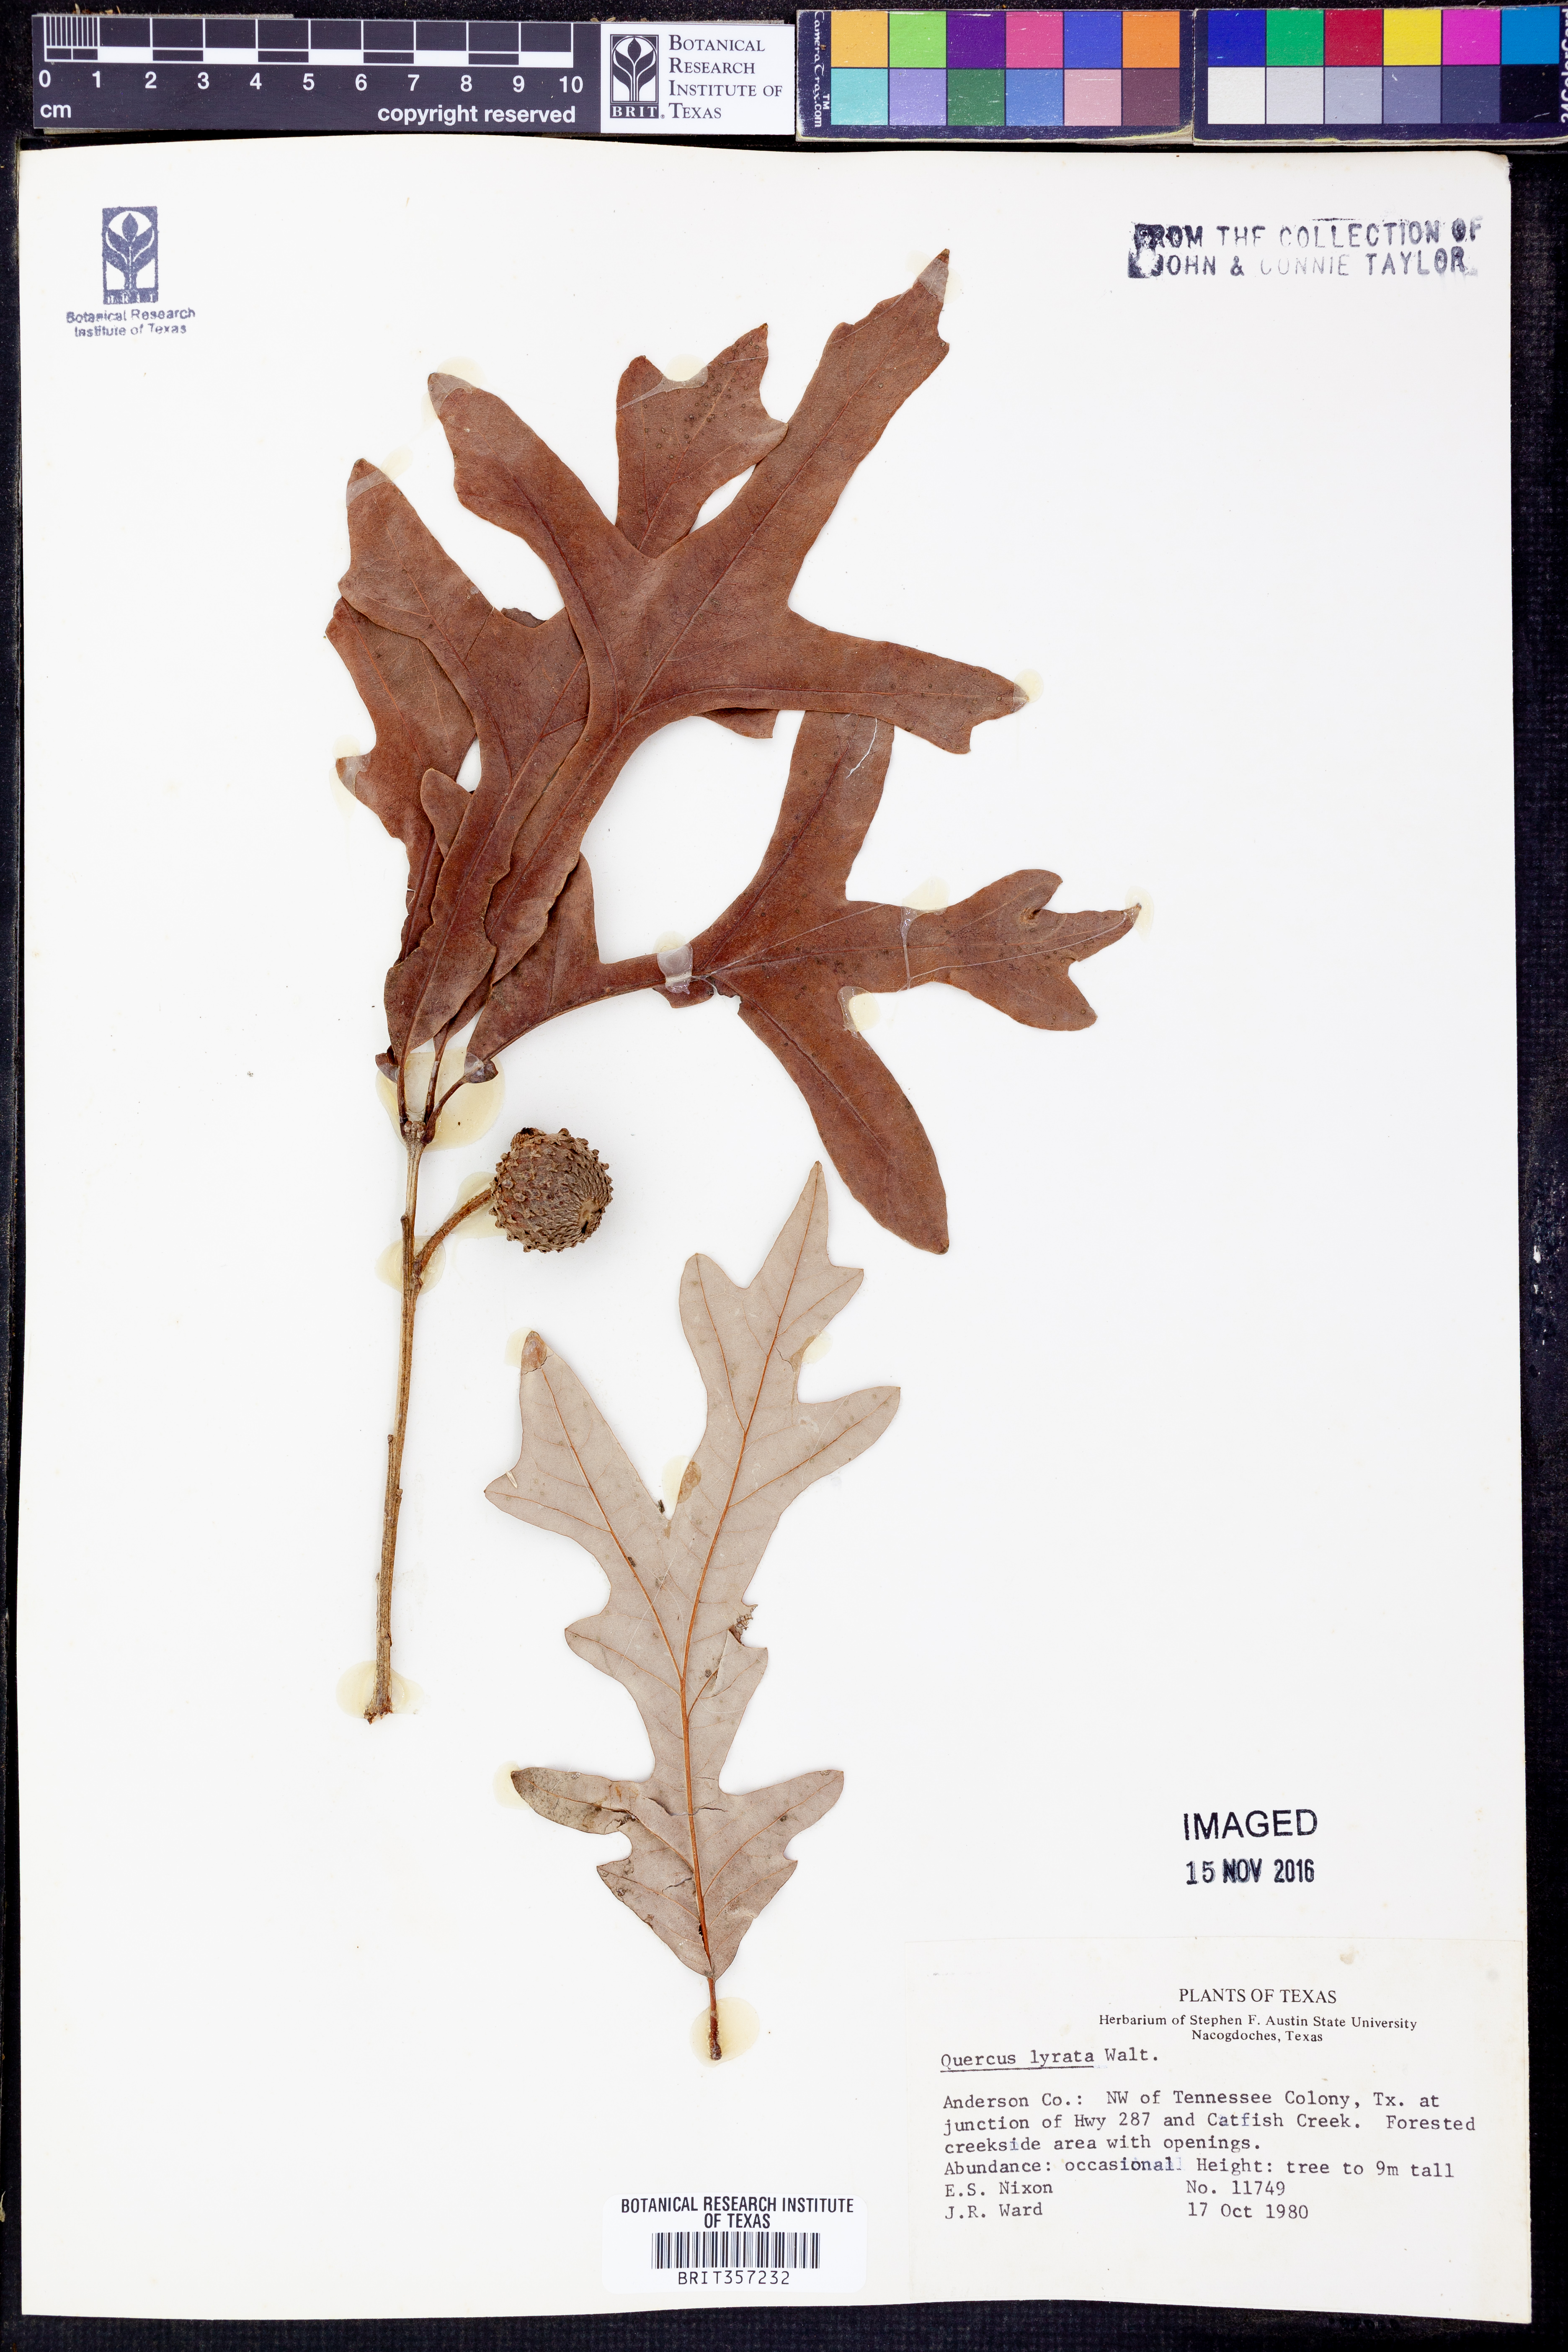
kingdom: Plantae
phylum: Tracheophyta
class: Magnoliopsida
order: Fagales
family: Fagaceae
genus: Quercus
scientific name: Quercus lyrata
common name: Overcup oak
